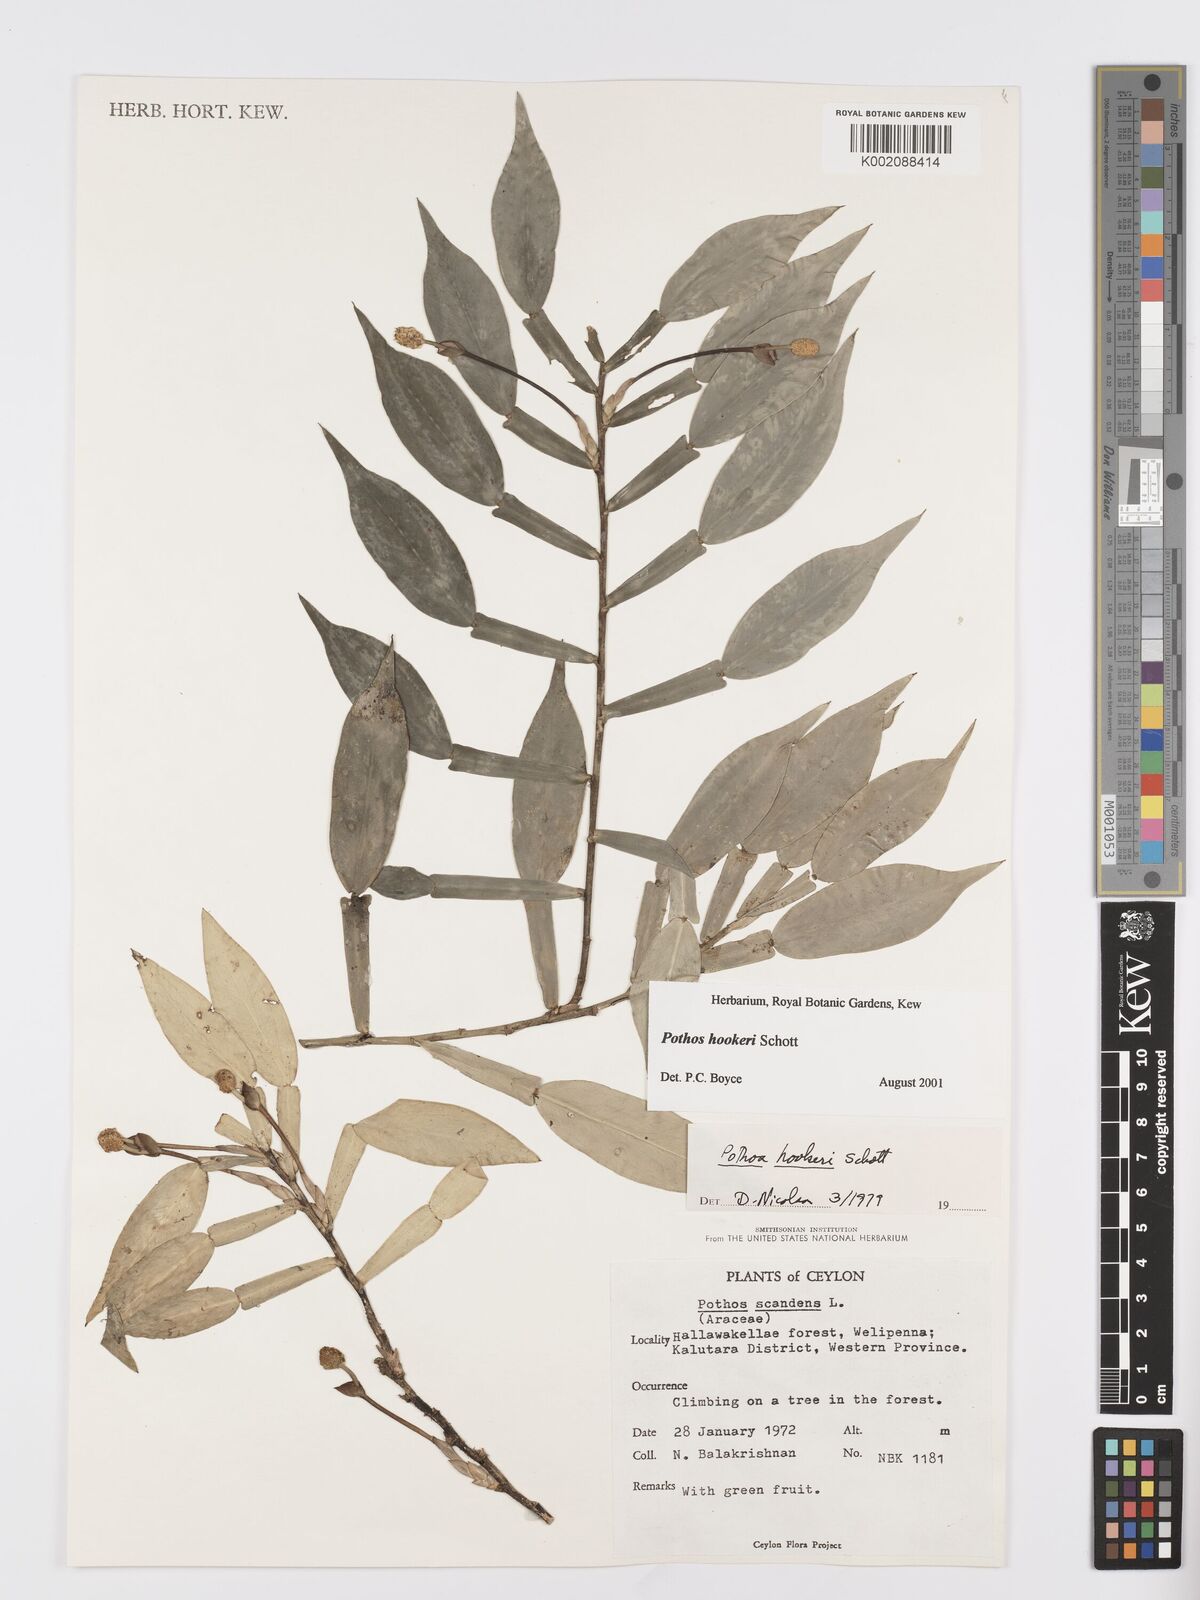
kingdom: Plantae
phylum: Tracheophyta
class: Liliopsida
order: Alismatales
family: Araceae
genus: Pothos
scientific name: Pothos hookeri
